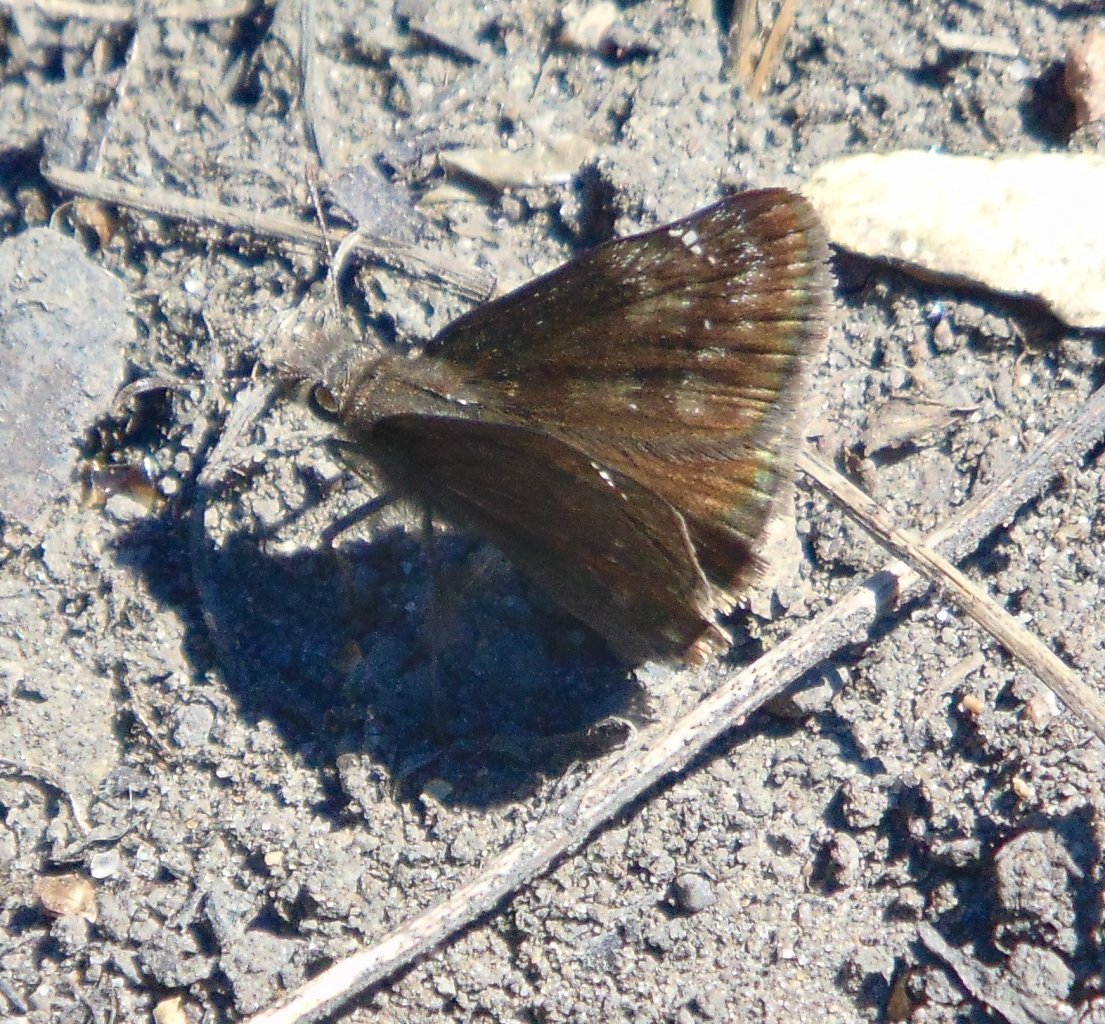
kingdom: Animalia
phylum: Arthropoda
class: Insecta
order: Lepidoptera
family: Hesperiidae
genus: Gesta
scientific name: Gesta
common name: Wild Indigo Duskywing
